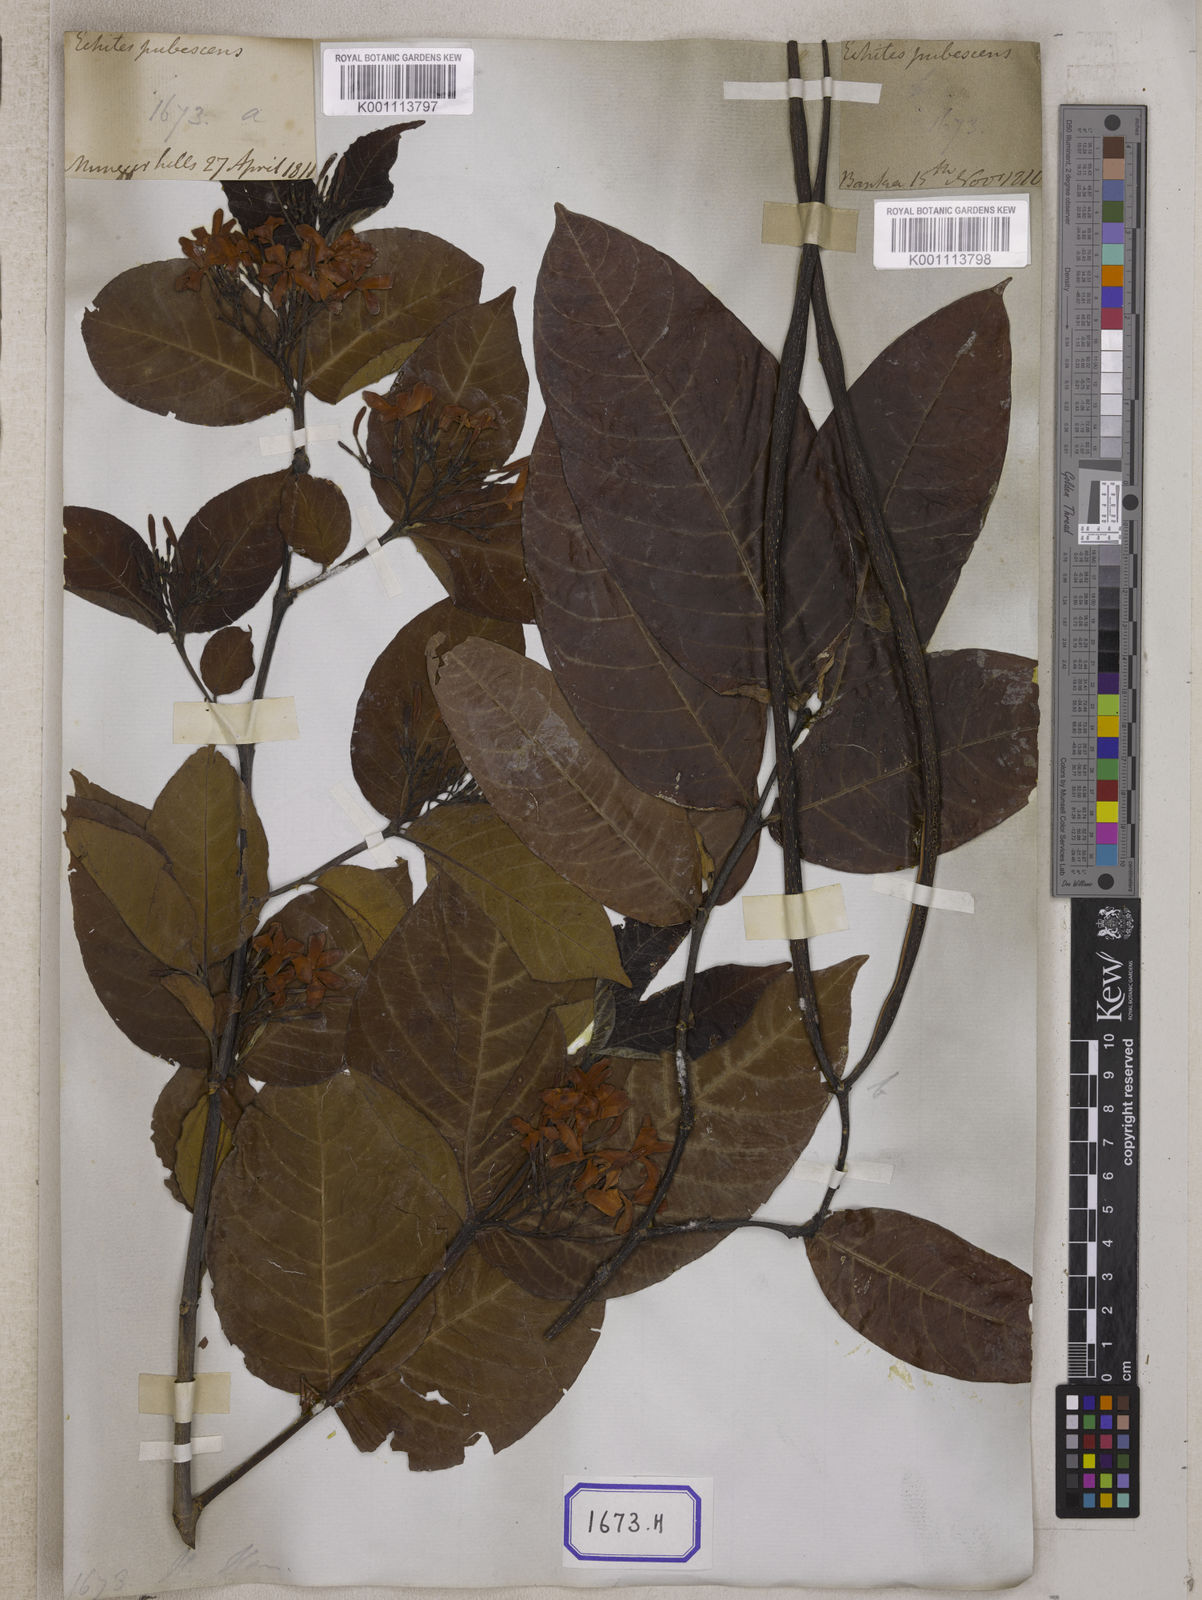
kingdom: Plantae
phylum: Tracheophyta
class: Magnoliopsida
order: Gentianales
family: Apocynaceae
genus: Holarrhena
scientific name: Holarrhena
